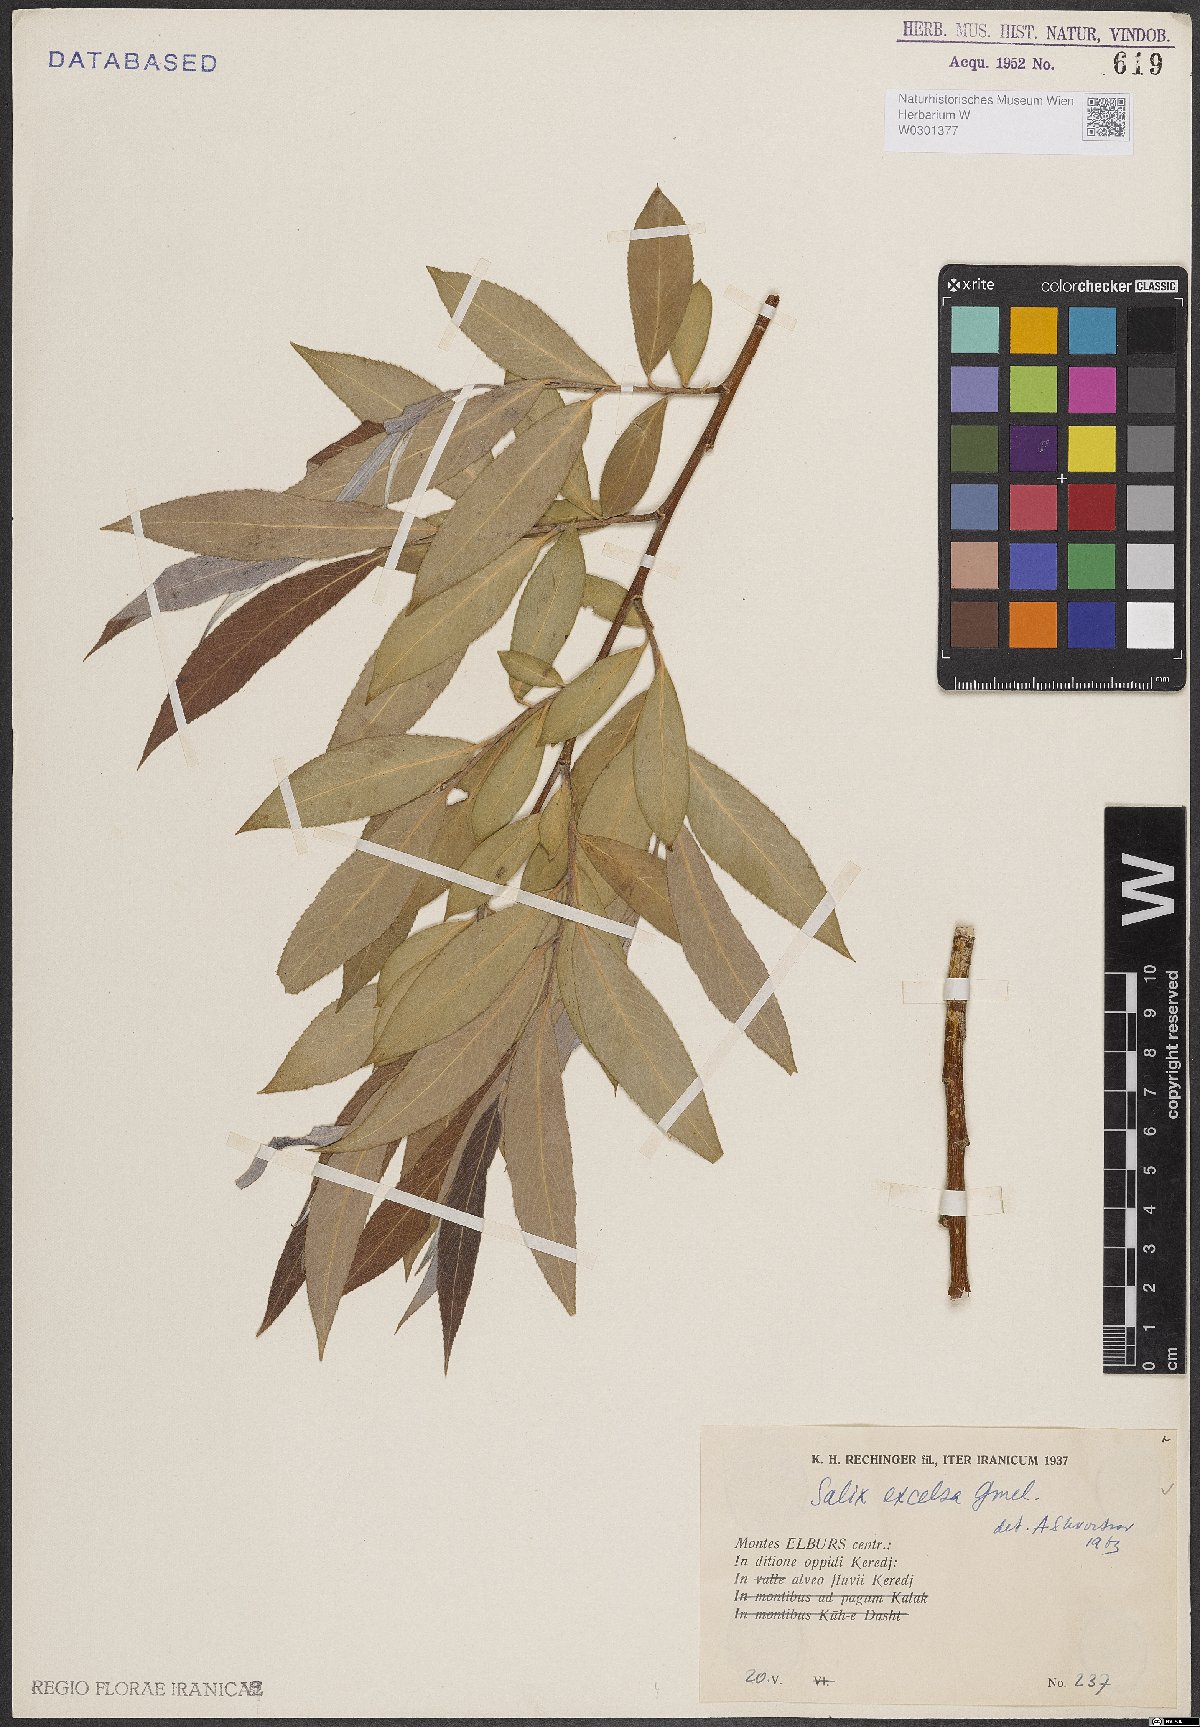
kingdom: Plantae
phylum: Tracheophyta
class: Magnoliopsida
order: Malpighiales
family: Salicaceae
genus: Salix
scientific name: Salix excelsa
